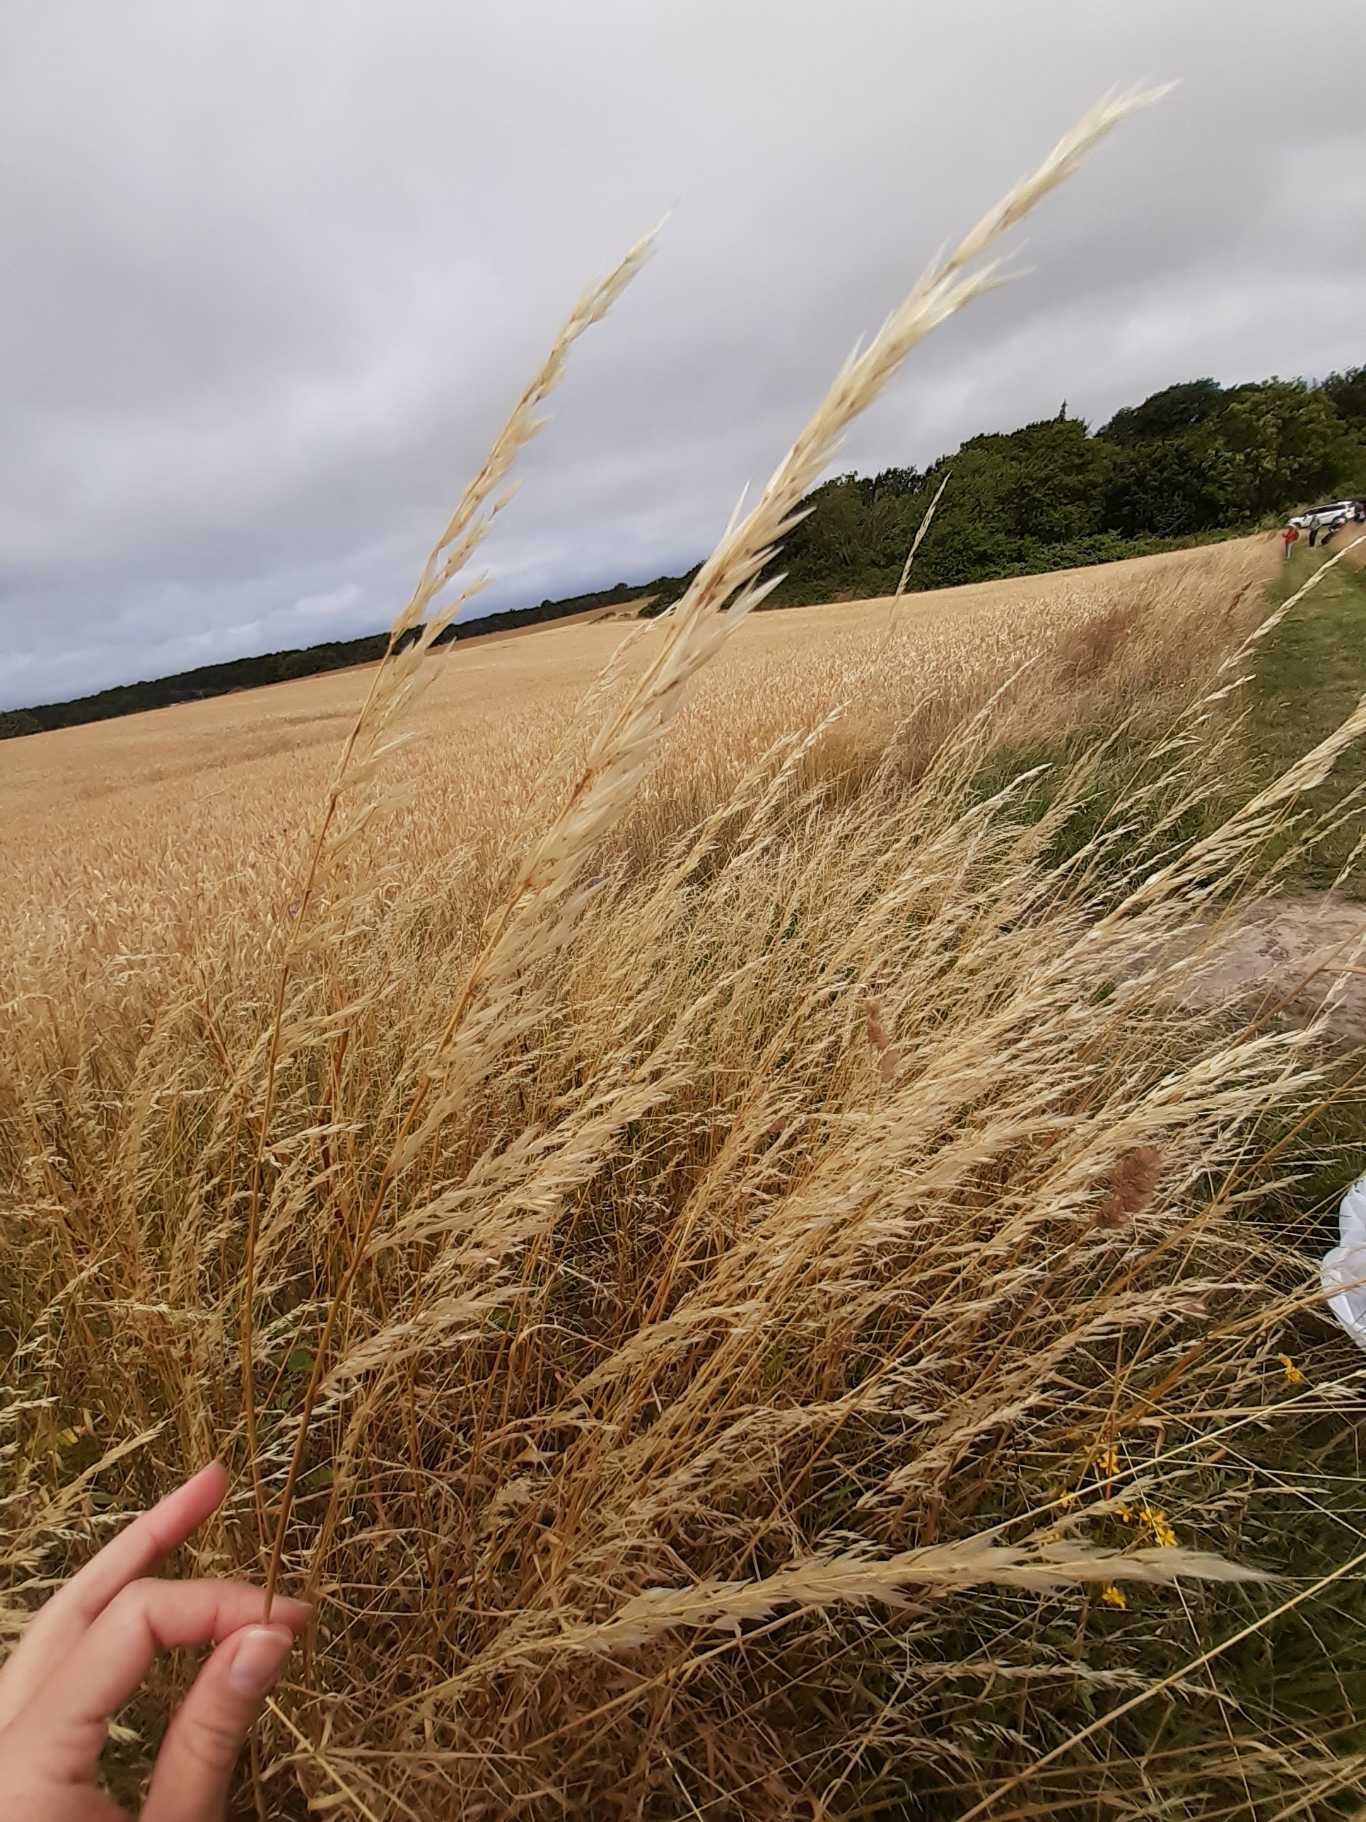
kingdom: Plantae
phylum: Tracheophyta
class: Liliopsida
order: Poales
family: Poaceae
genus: Arrhenatherum
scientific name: Arrhenatherum elatius
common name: Draphavre
